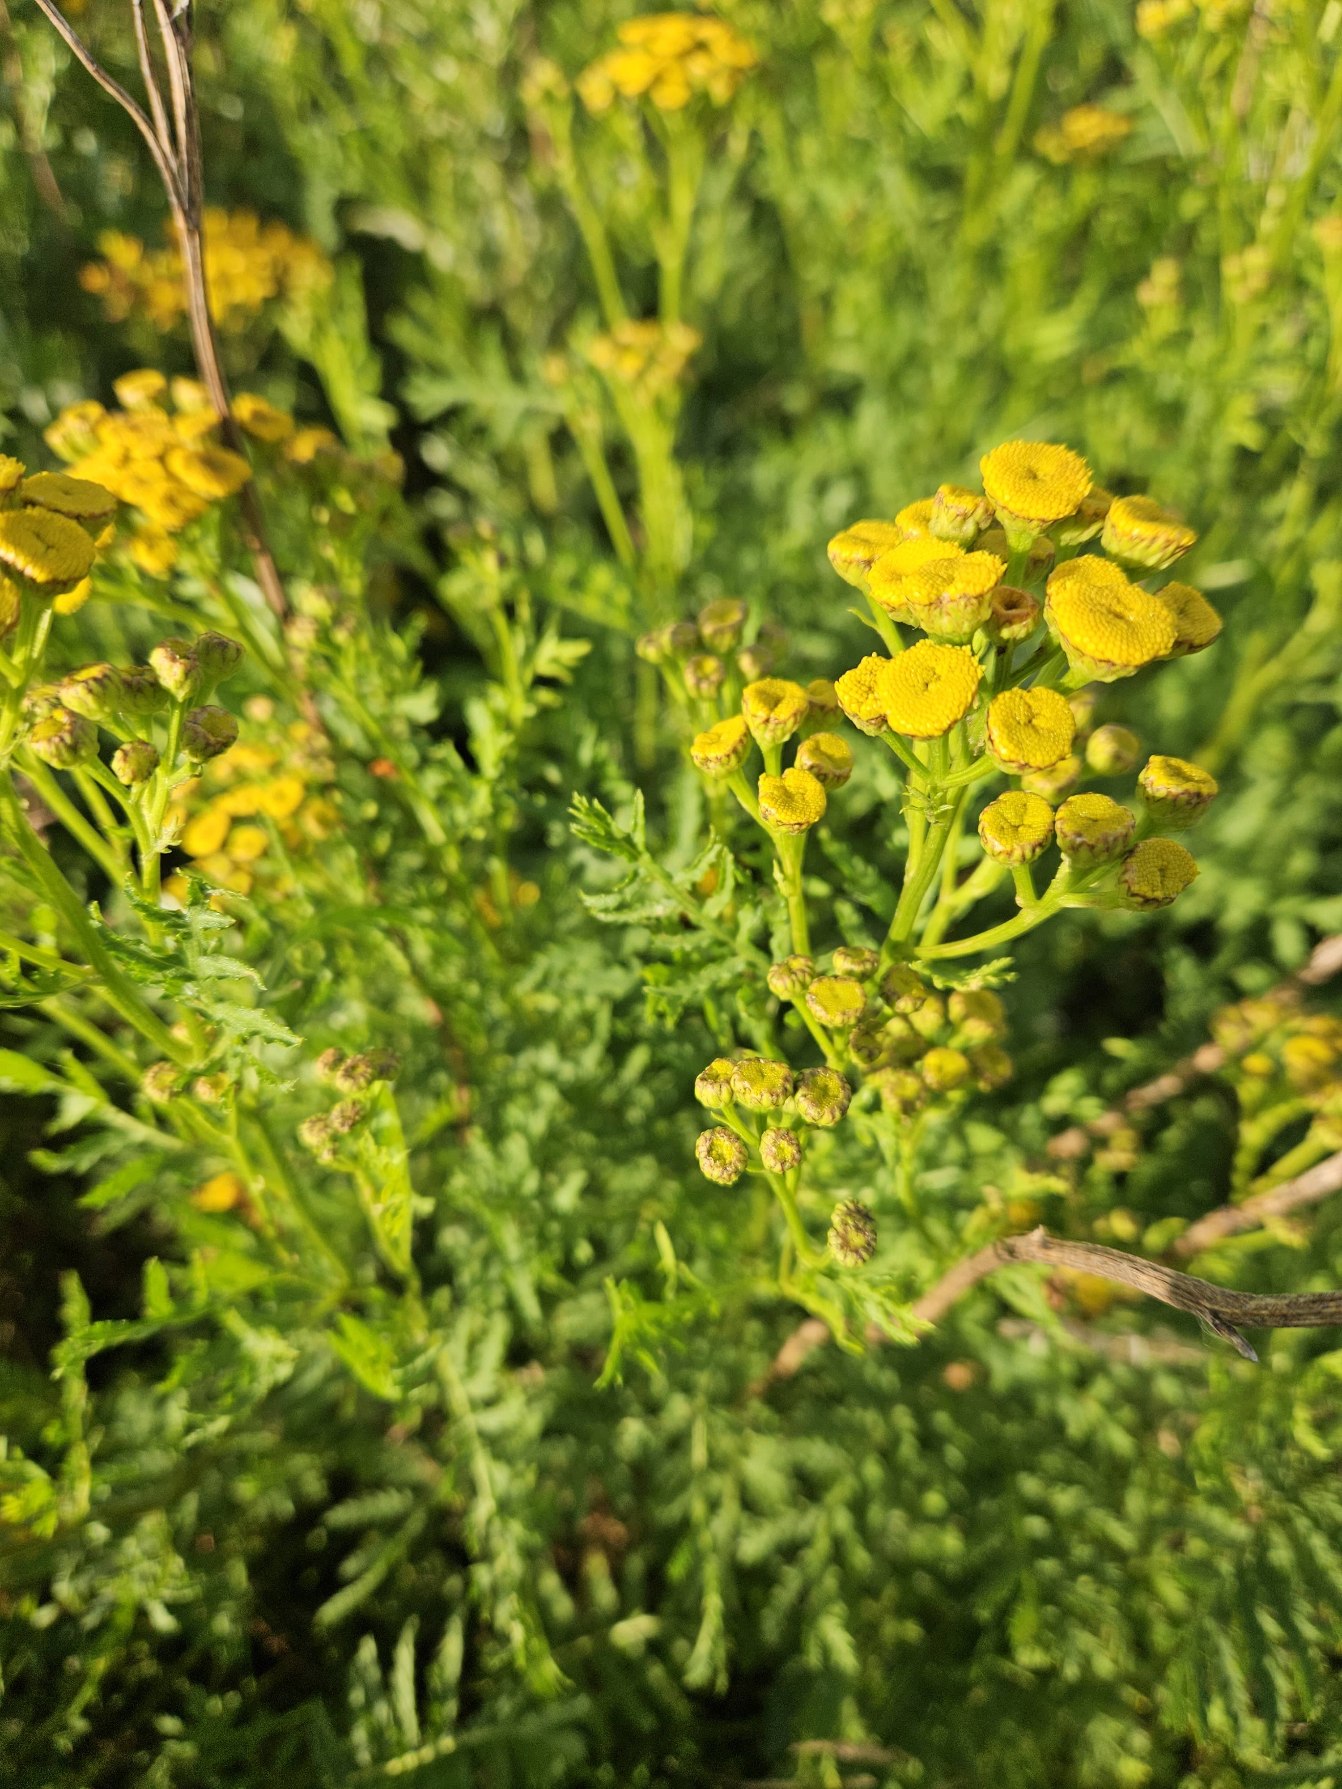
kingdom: Plantae
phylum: Tracheophyta
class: Magnoliopsida
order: Asterales
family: Asteraceae
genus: Tanacetum
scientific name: Tanacetum vulgare
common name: Rejnfan
